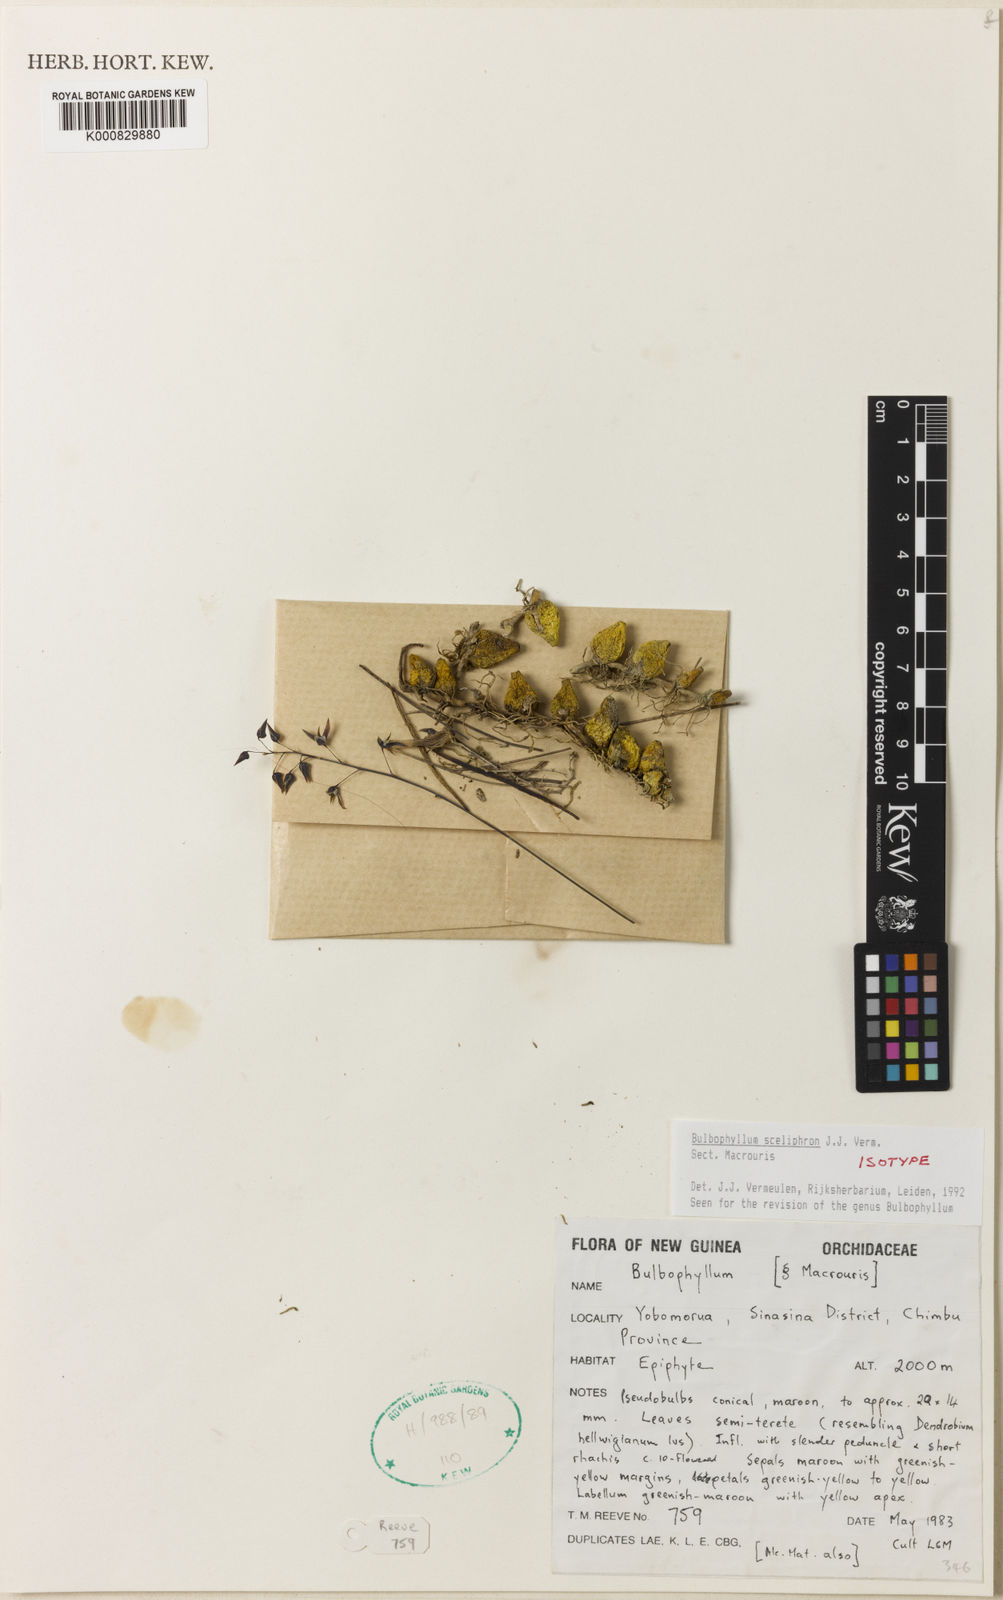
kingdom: Plantae
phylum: Tracheophyta
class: Liliopsida
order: Asparagales
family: Orchidaceae
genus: Bulbophyllum
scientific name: Bulbophyllum
